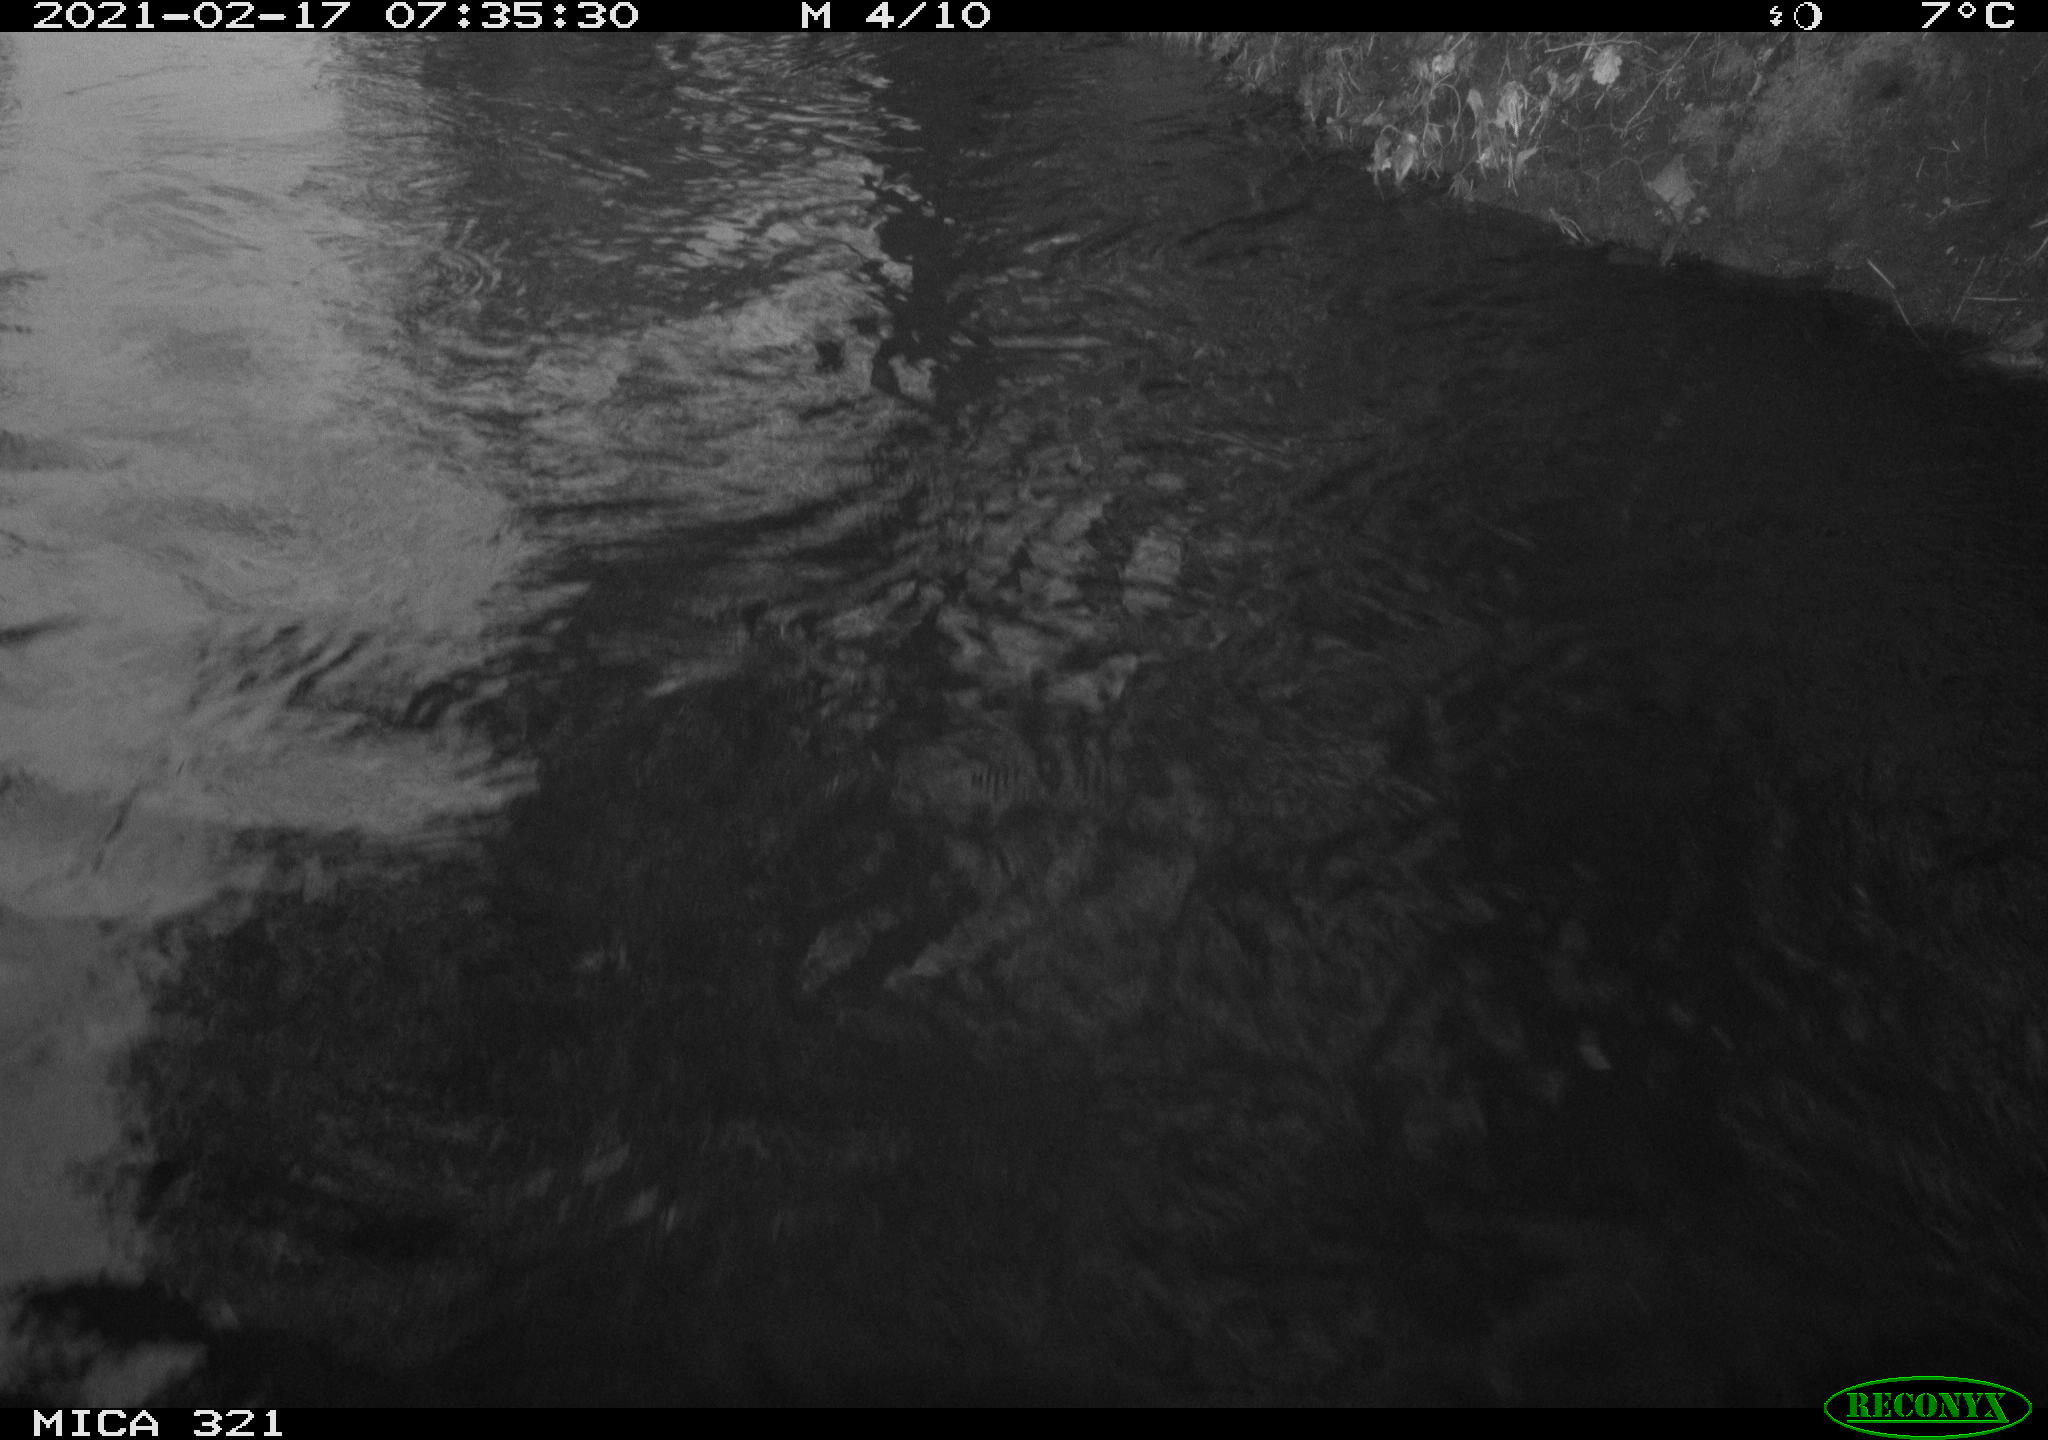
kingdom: Animalia
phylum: Chordata
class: Aves
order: Anseriformes
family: Anatidae
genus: Anas
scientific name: Anas platyrhynchos
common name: Mallard
